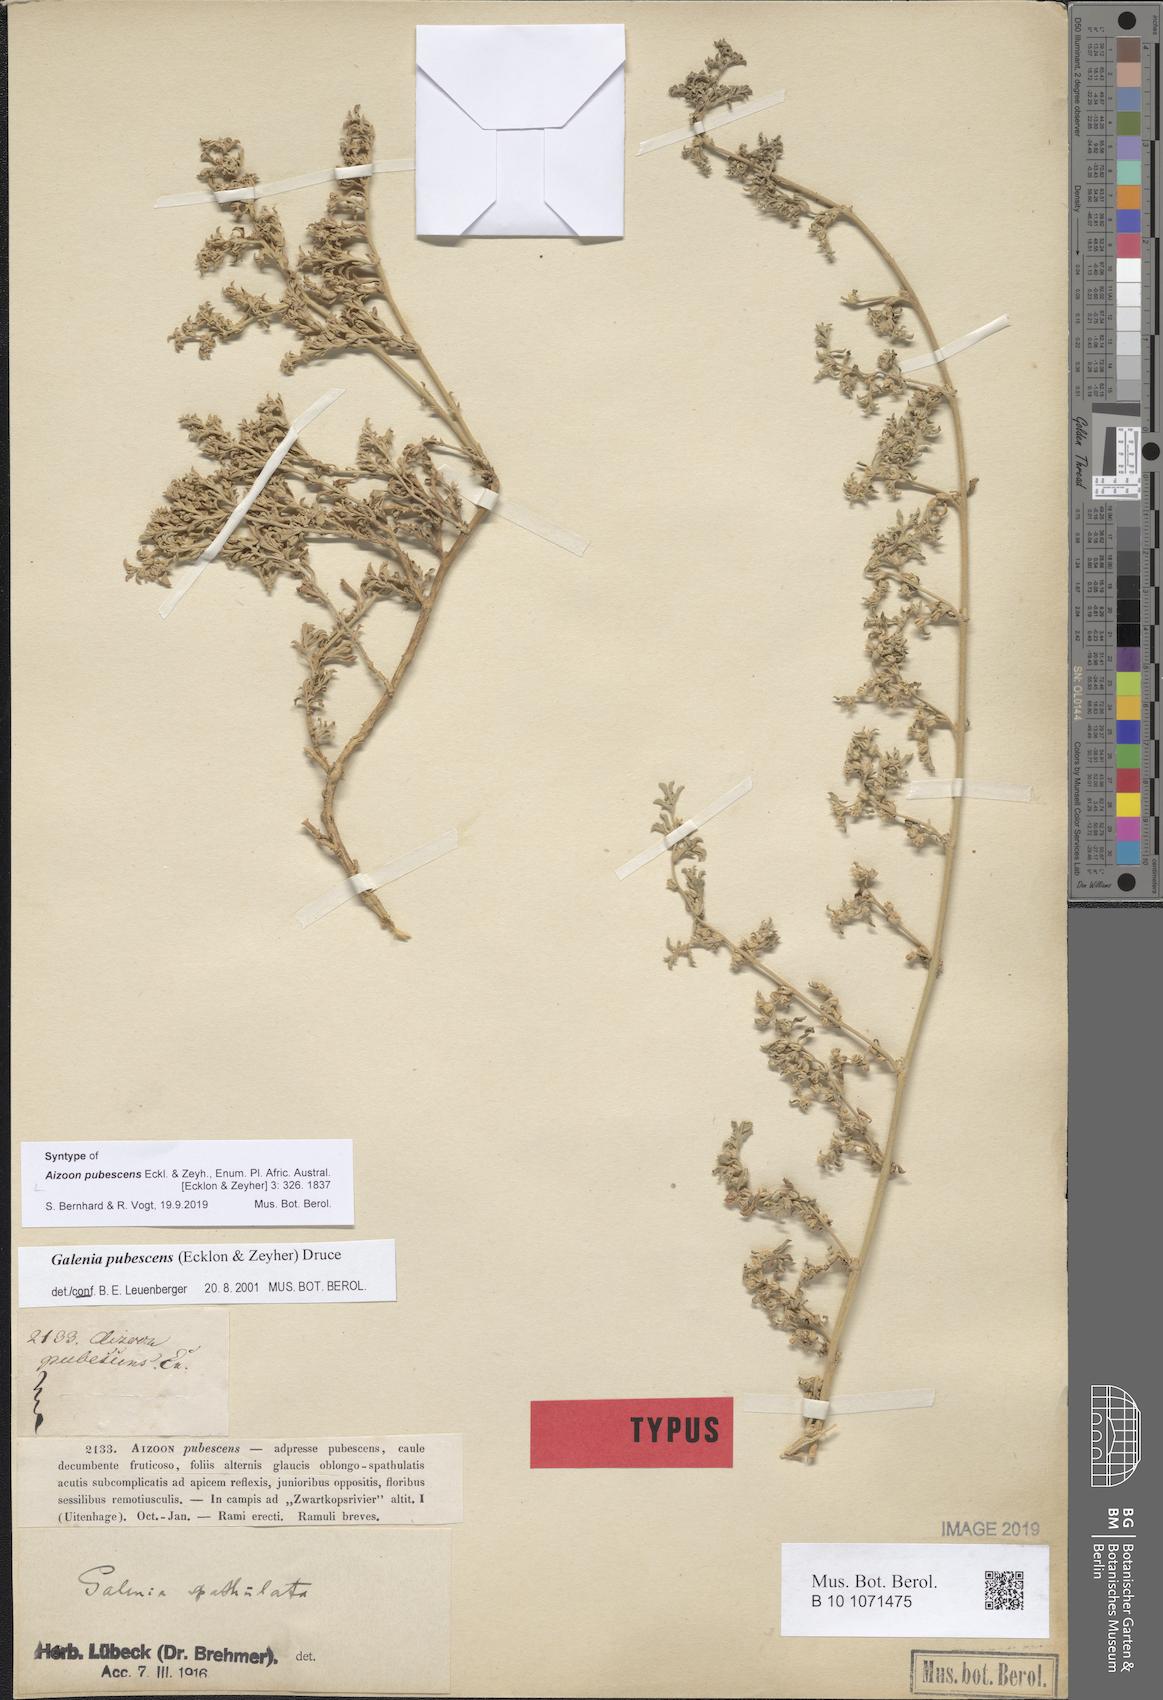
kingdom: Plantae
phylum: Tracheophyta
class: Magnoliopsida
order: Caryophyllales
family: Aizoaceae
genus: Aizoon
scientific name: Aizoon pubescens
